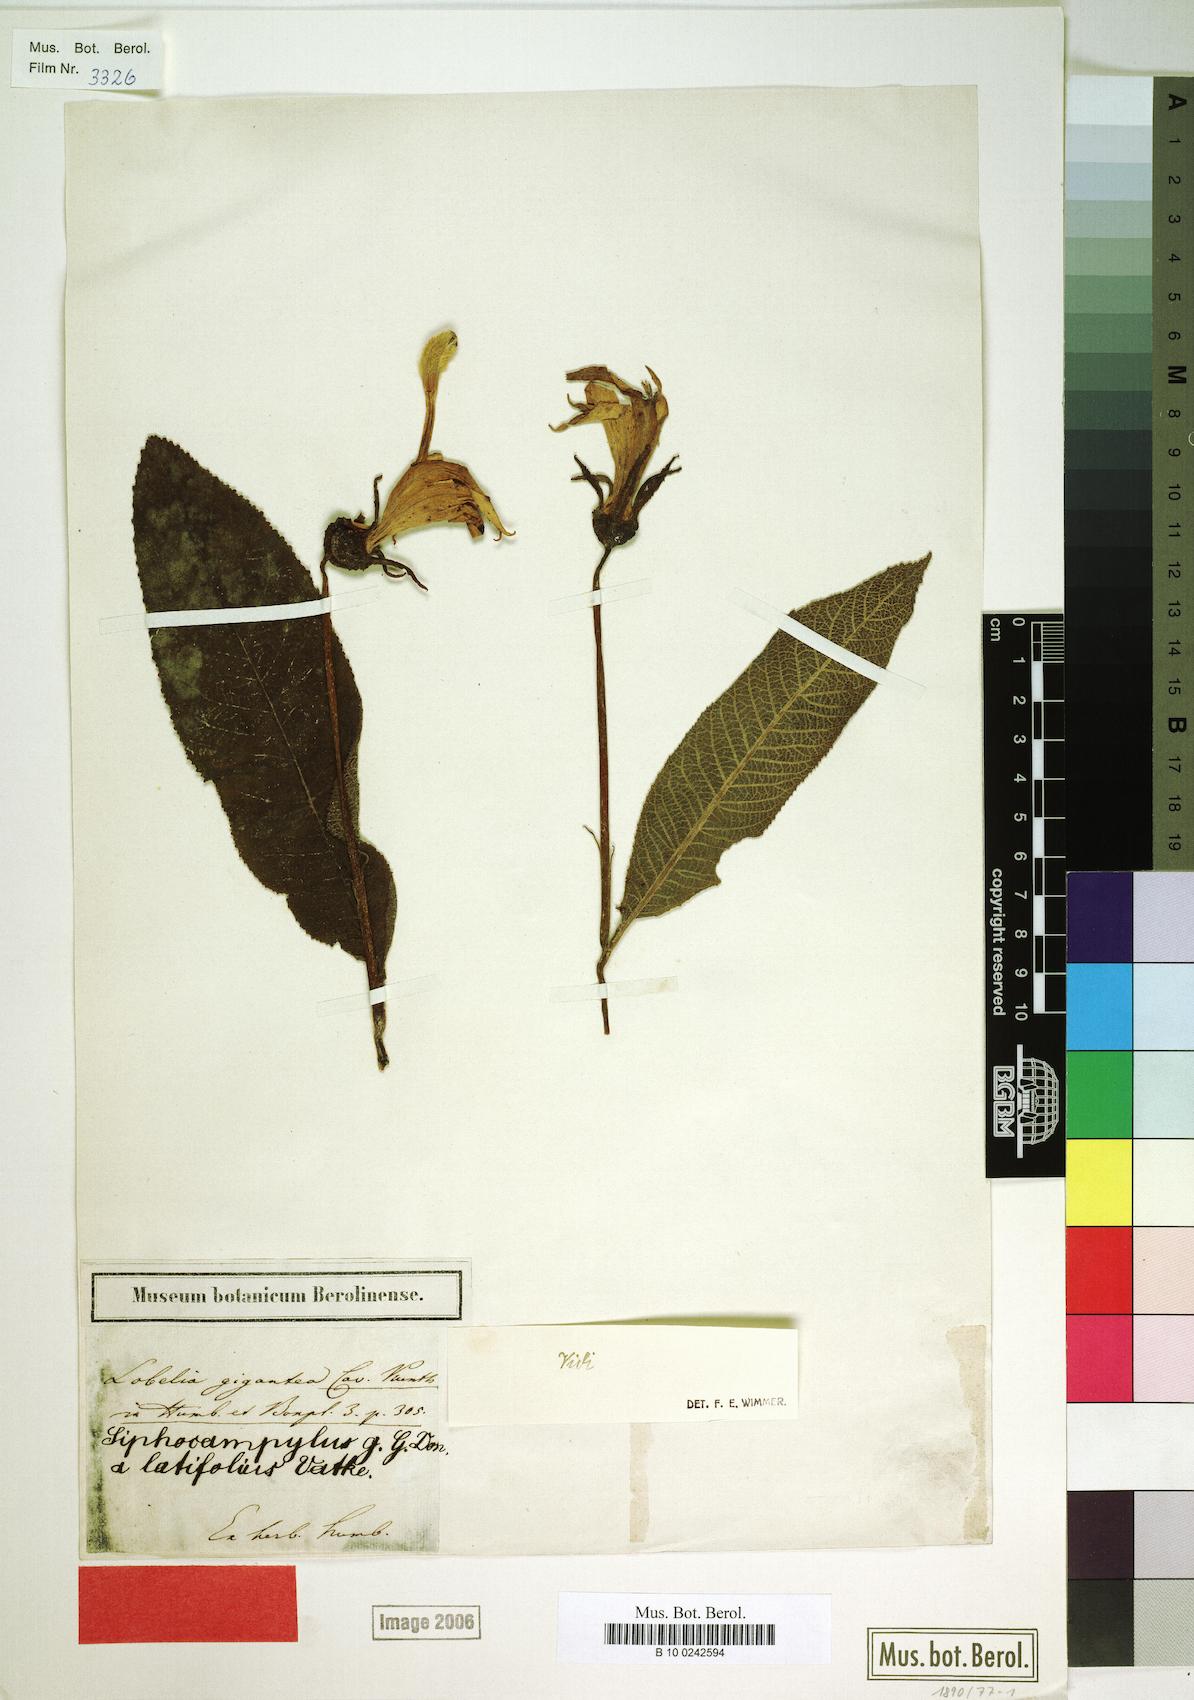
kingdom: Plantae
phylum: Tracheophyta
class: Magnoliopsida
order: Asterales
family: Campanulaceae
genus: Centropogon
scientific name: Centropogon brittonianus
